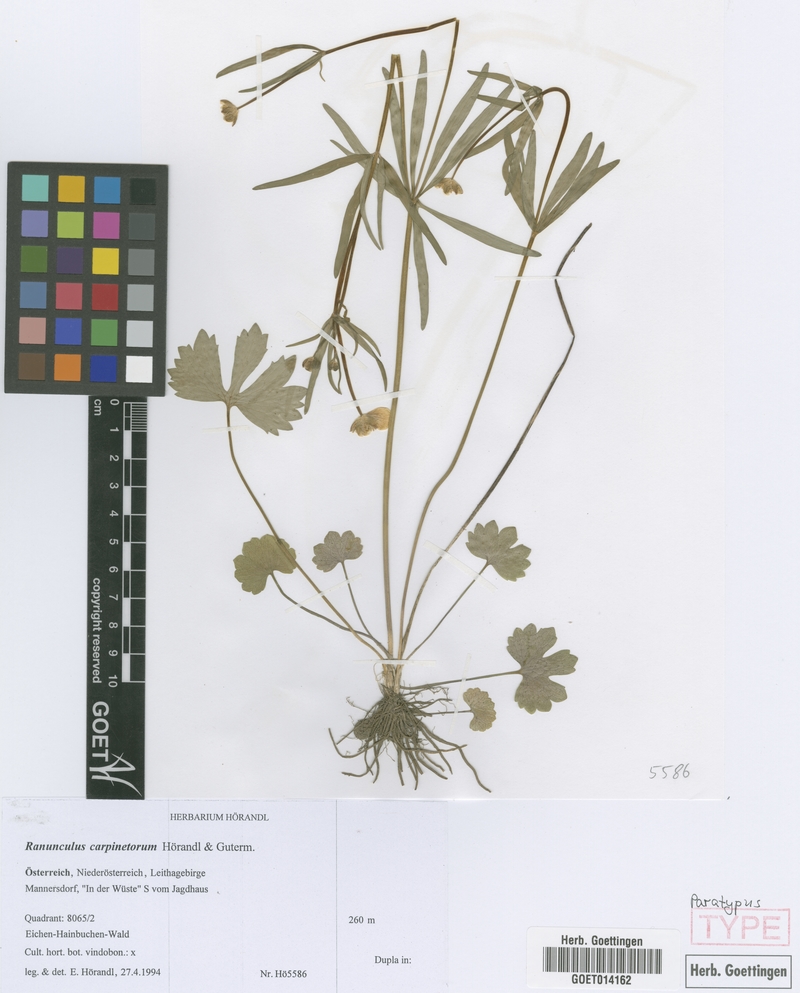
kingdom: Plantae
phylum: Tracheophyta
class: Magnoliopsida
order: Ranunculales
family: Ranunculaceae
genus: Ranunculus
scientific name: Ranunculus carpinetorum
